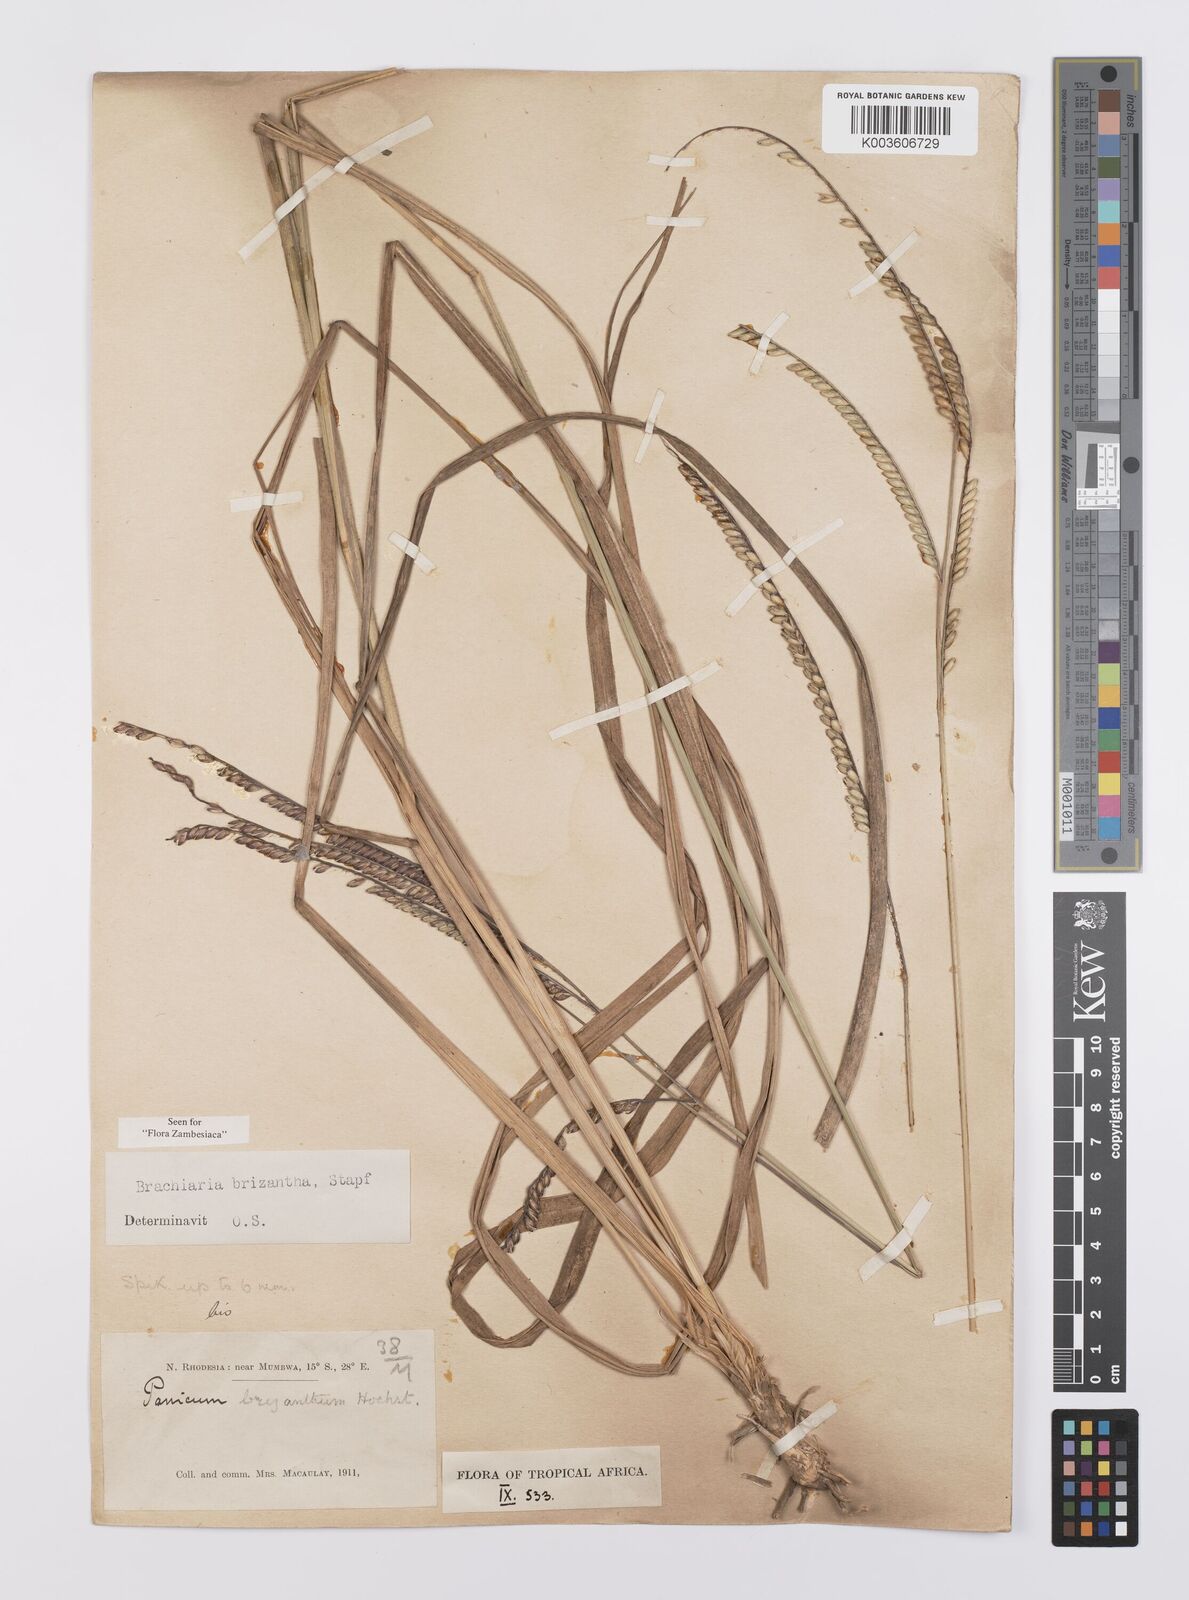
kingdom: Plantae
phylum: Tracheophyta
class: Liliopsida
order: Poales
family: Poaceae
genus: Urochloa
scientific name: Urochloa brizantha
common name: Palisade signalgrass
